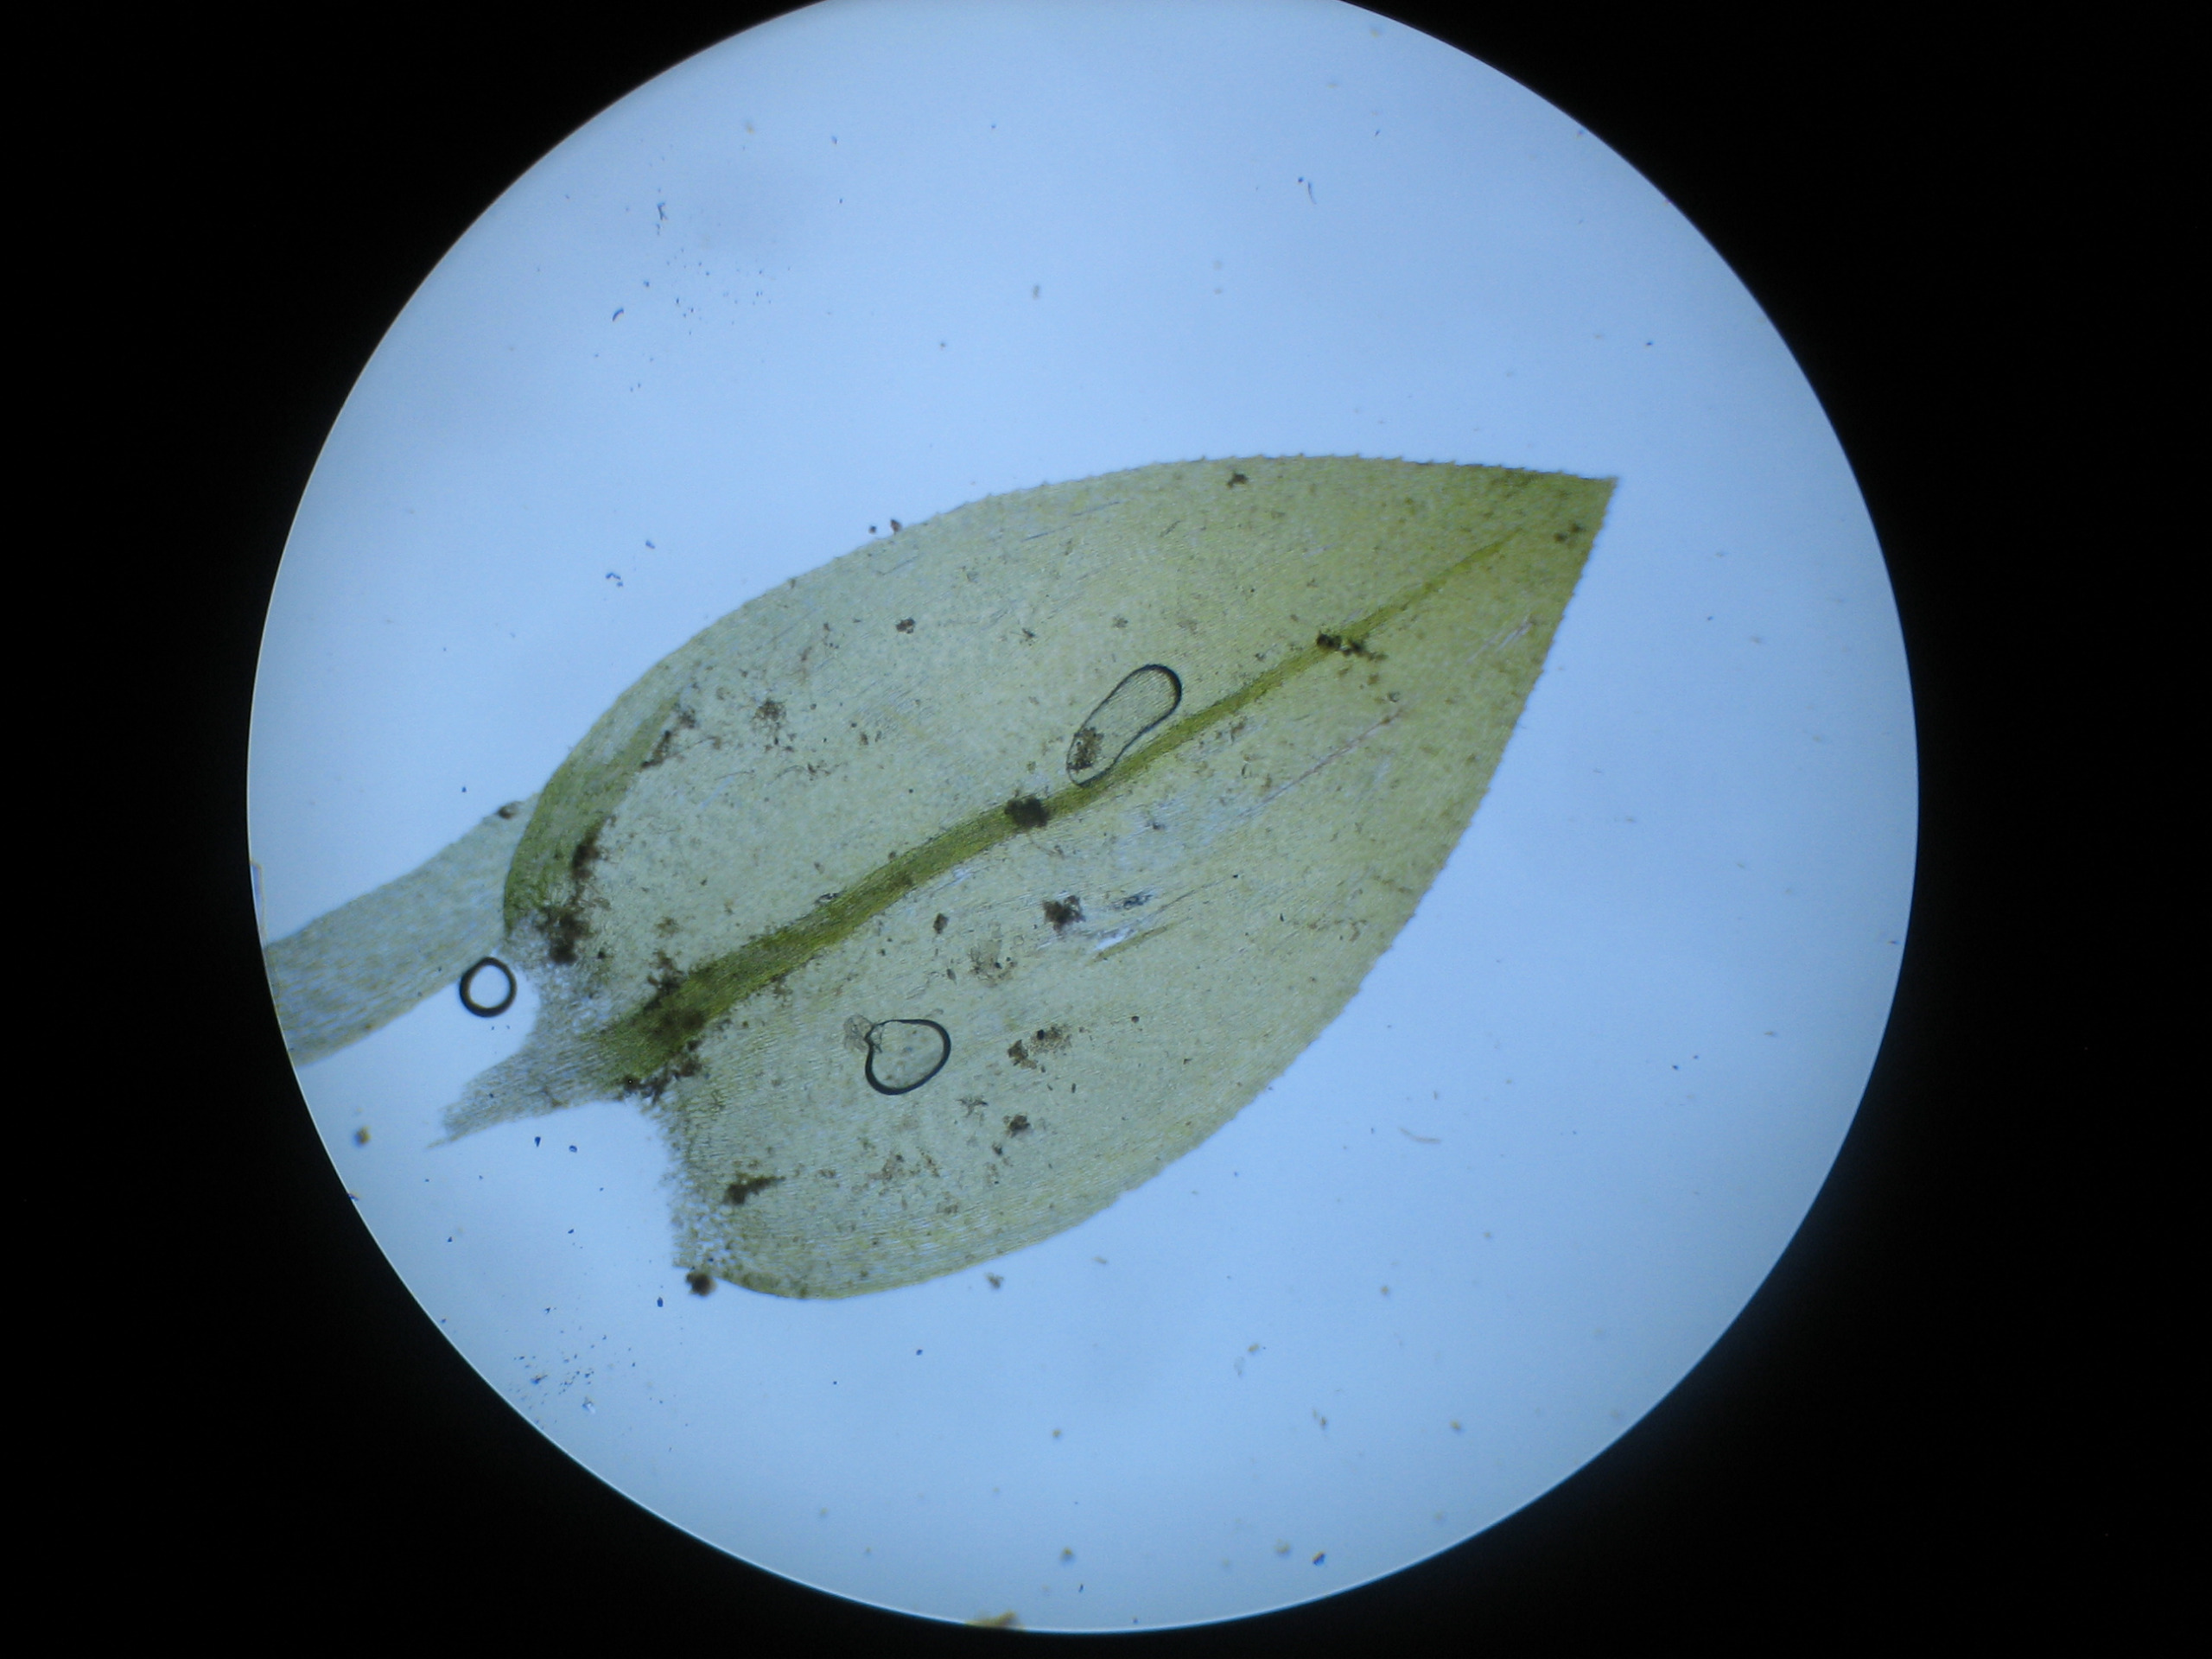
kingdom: Plantae
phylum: Bryophyta
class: Bryopsida
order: Hypnales
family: Brachytheciaceae
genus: Rhynchostegium
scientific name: Rhynchostegium riparioides
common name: Robust strømmos
